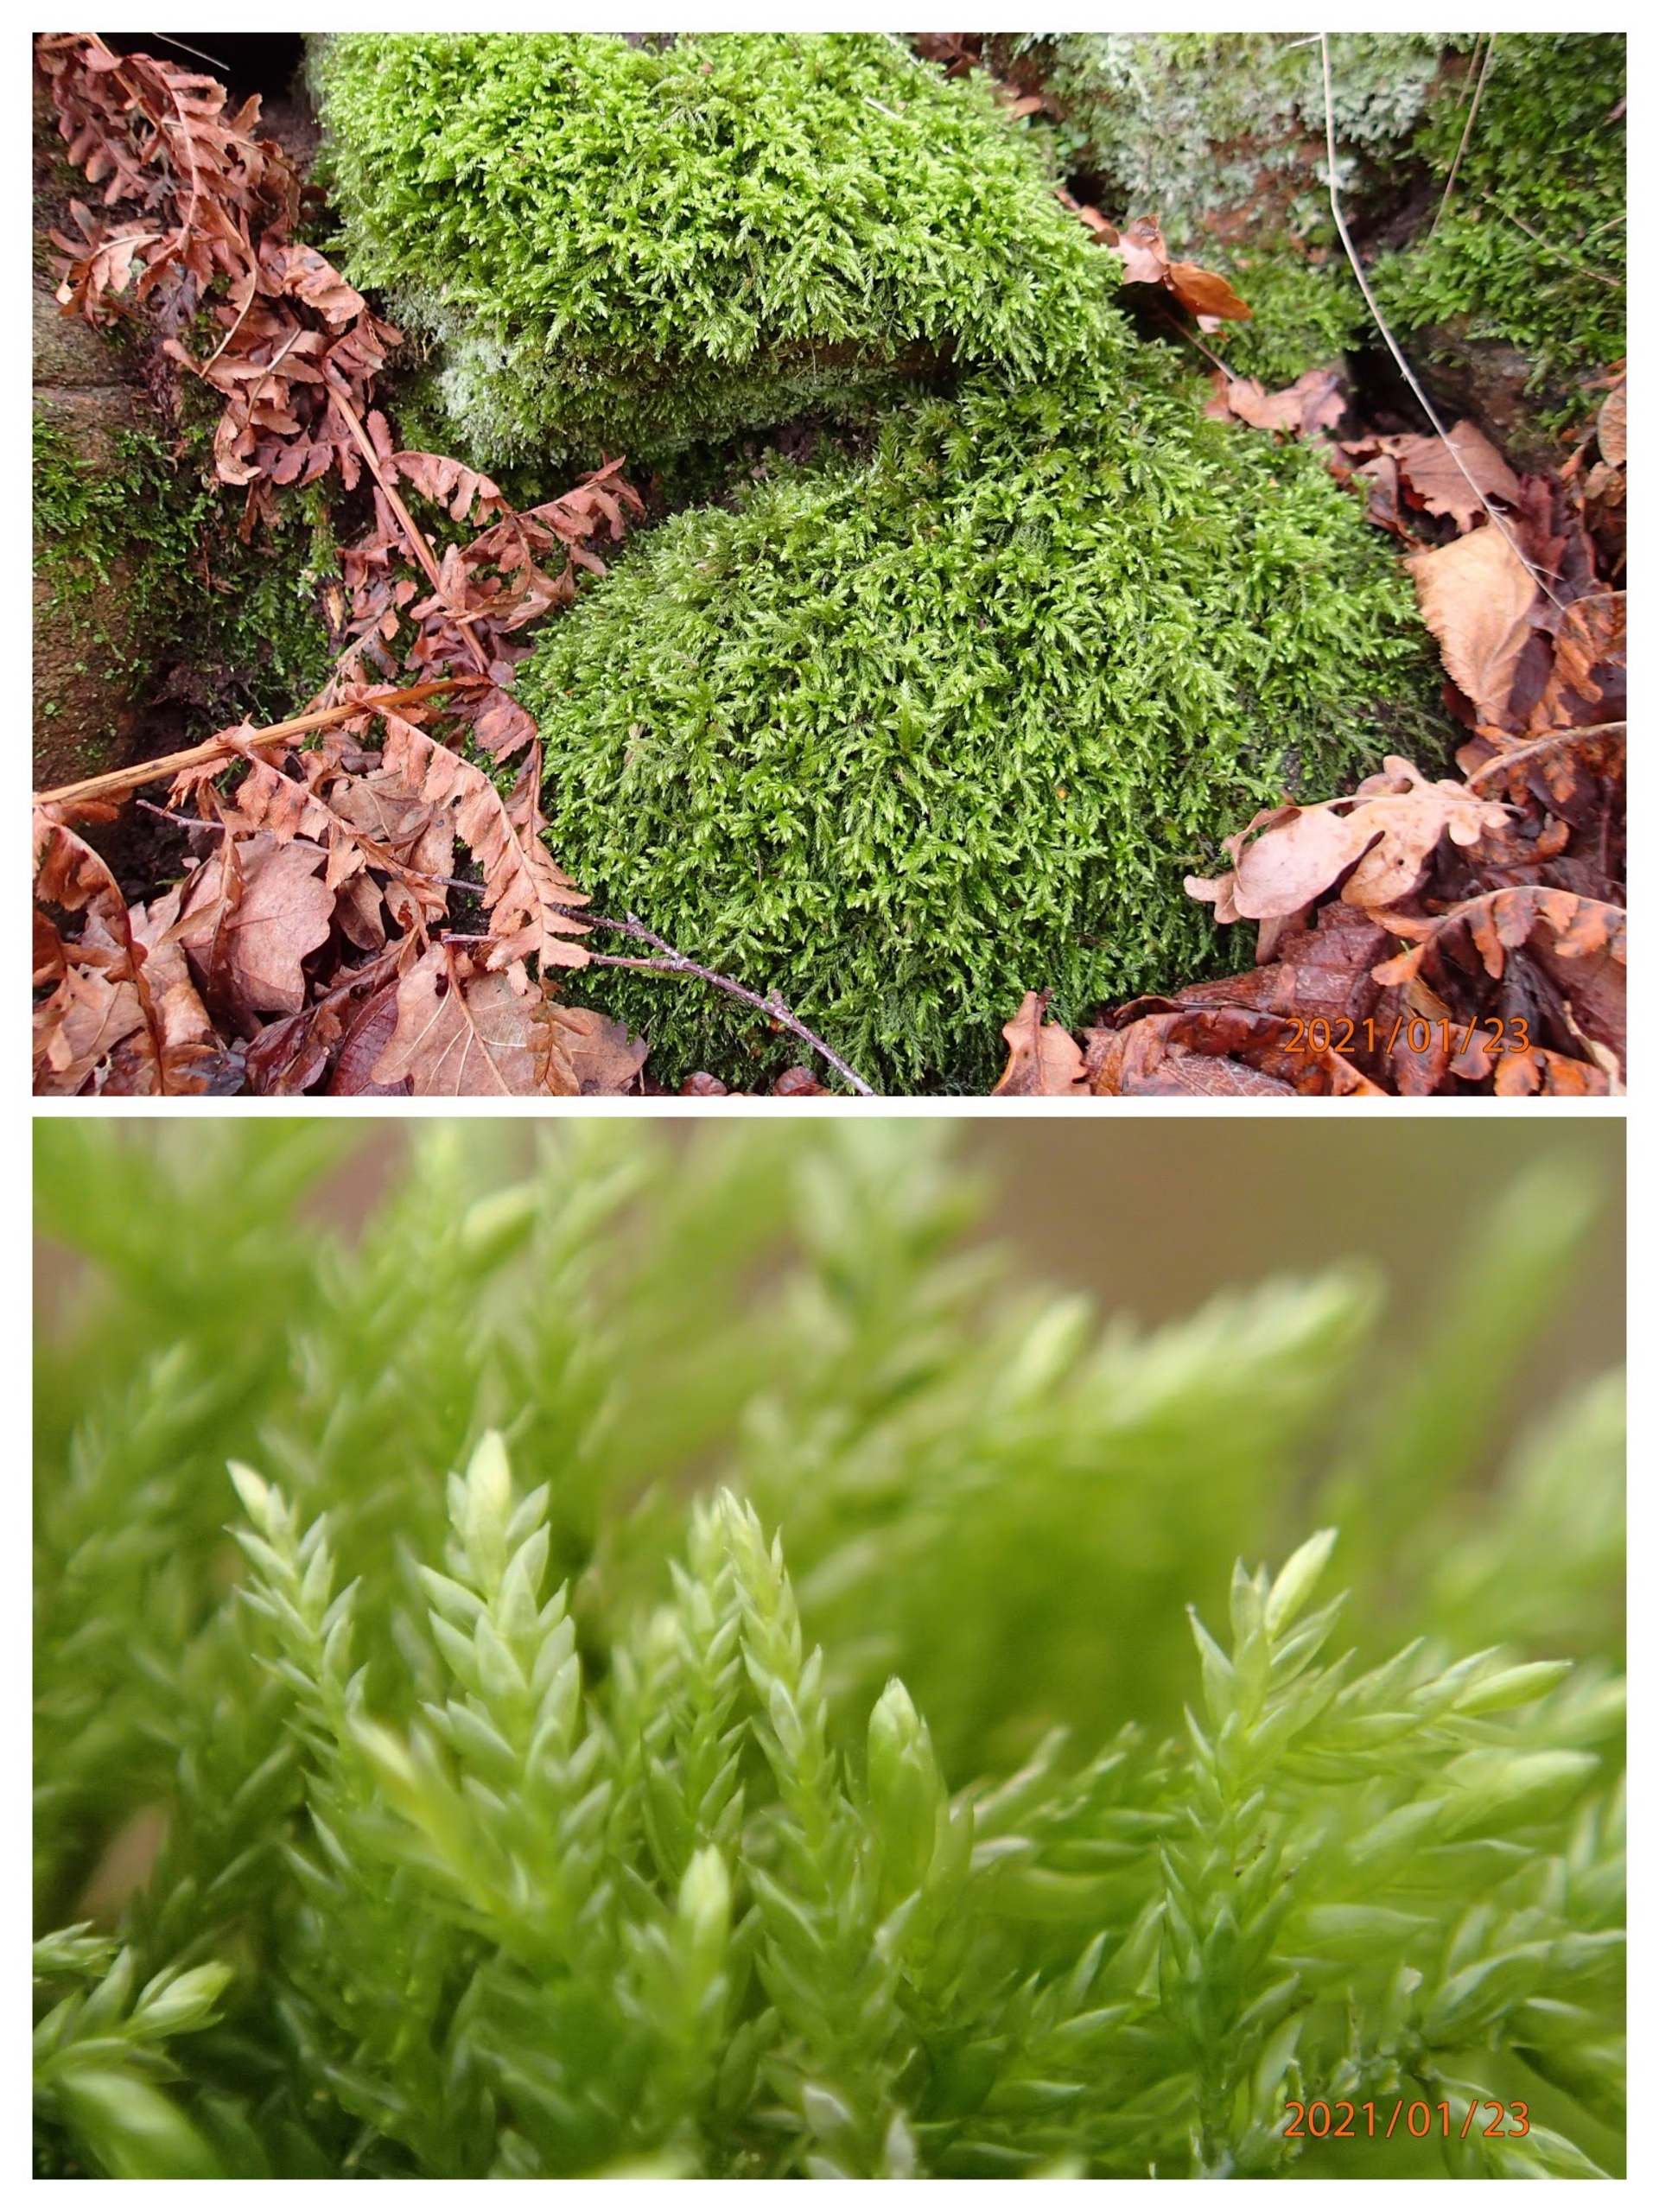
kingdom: Plantae
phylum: Bryophyta
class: Bryopsida
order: Hypnales
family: Lembophyllaceae
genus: Isothecium
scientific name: Isothecium alopecuroides
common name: Stor stammemos
